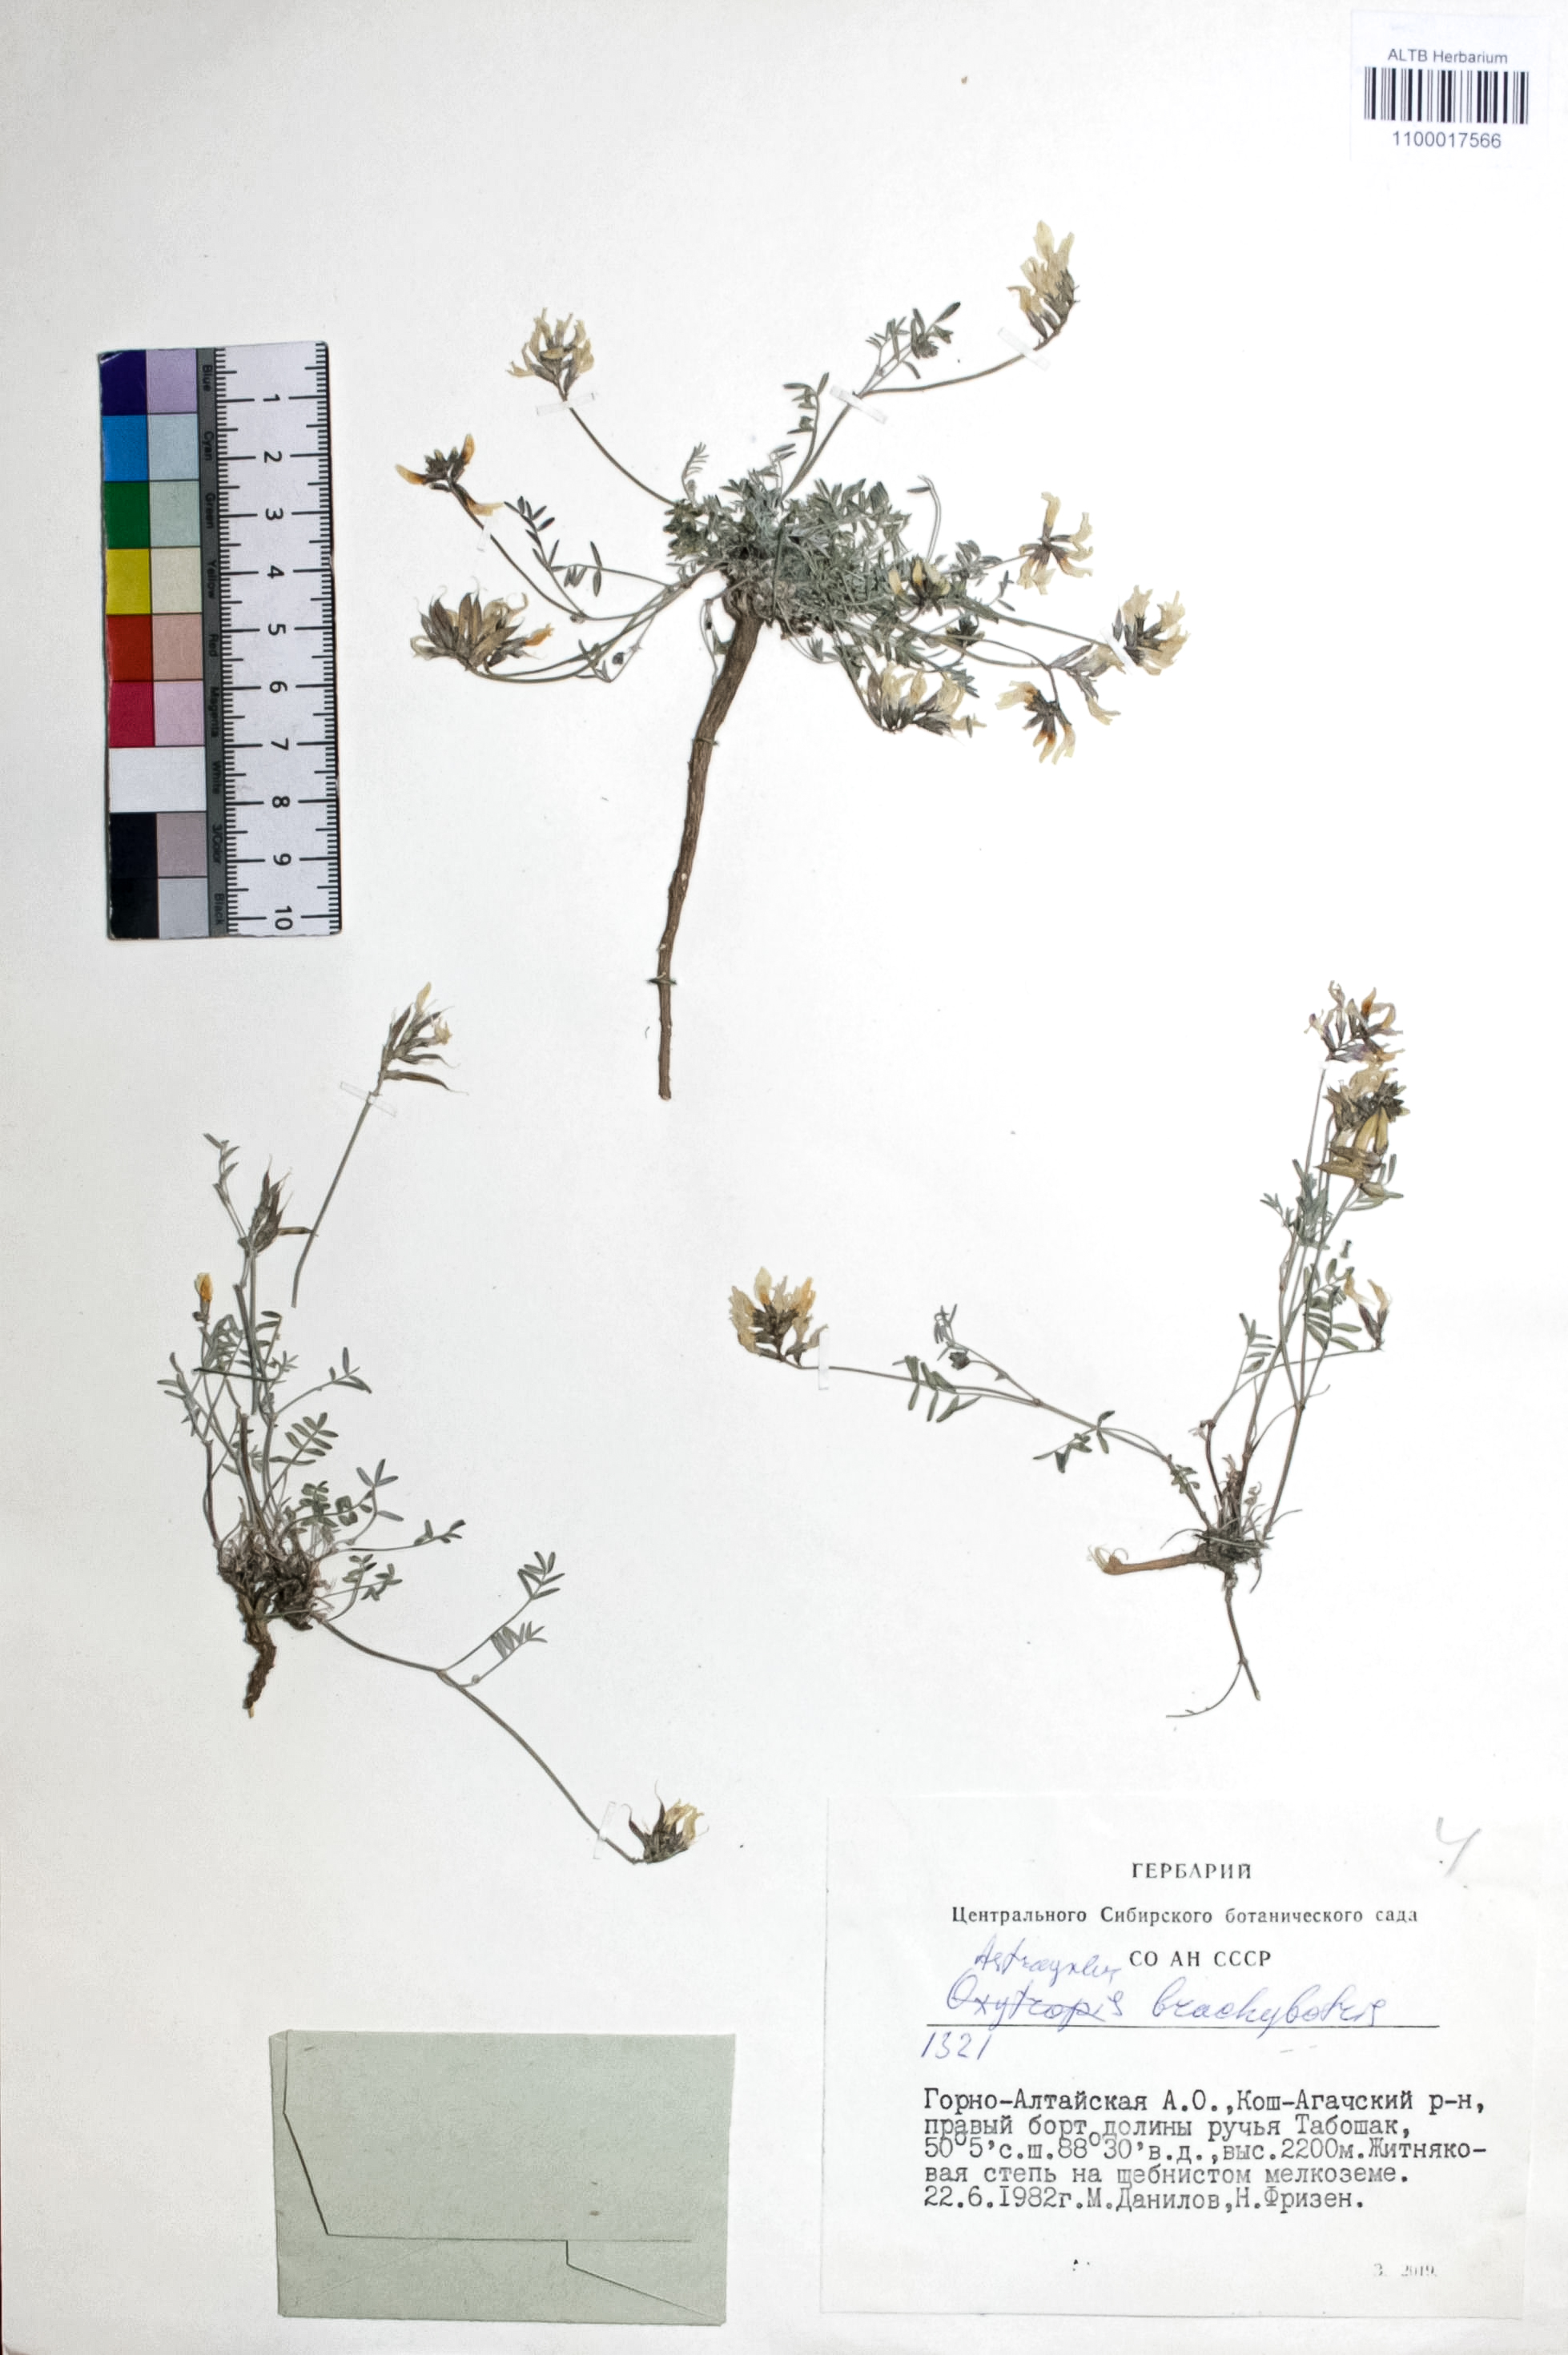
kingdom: Plantae
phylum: Tracheophyta
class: Magnoliopsida
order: Fabales
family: Fabaceae
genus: Astragalus
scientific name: Astragalus brachybotrys
